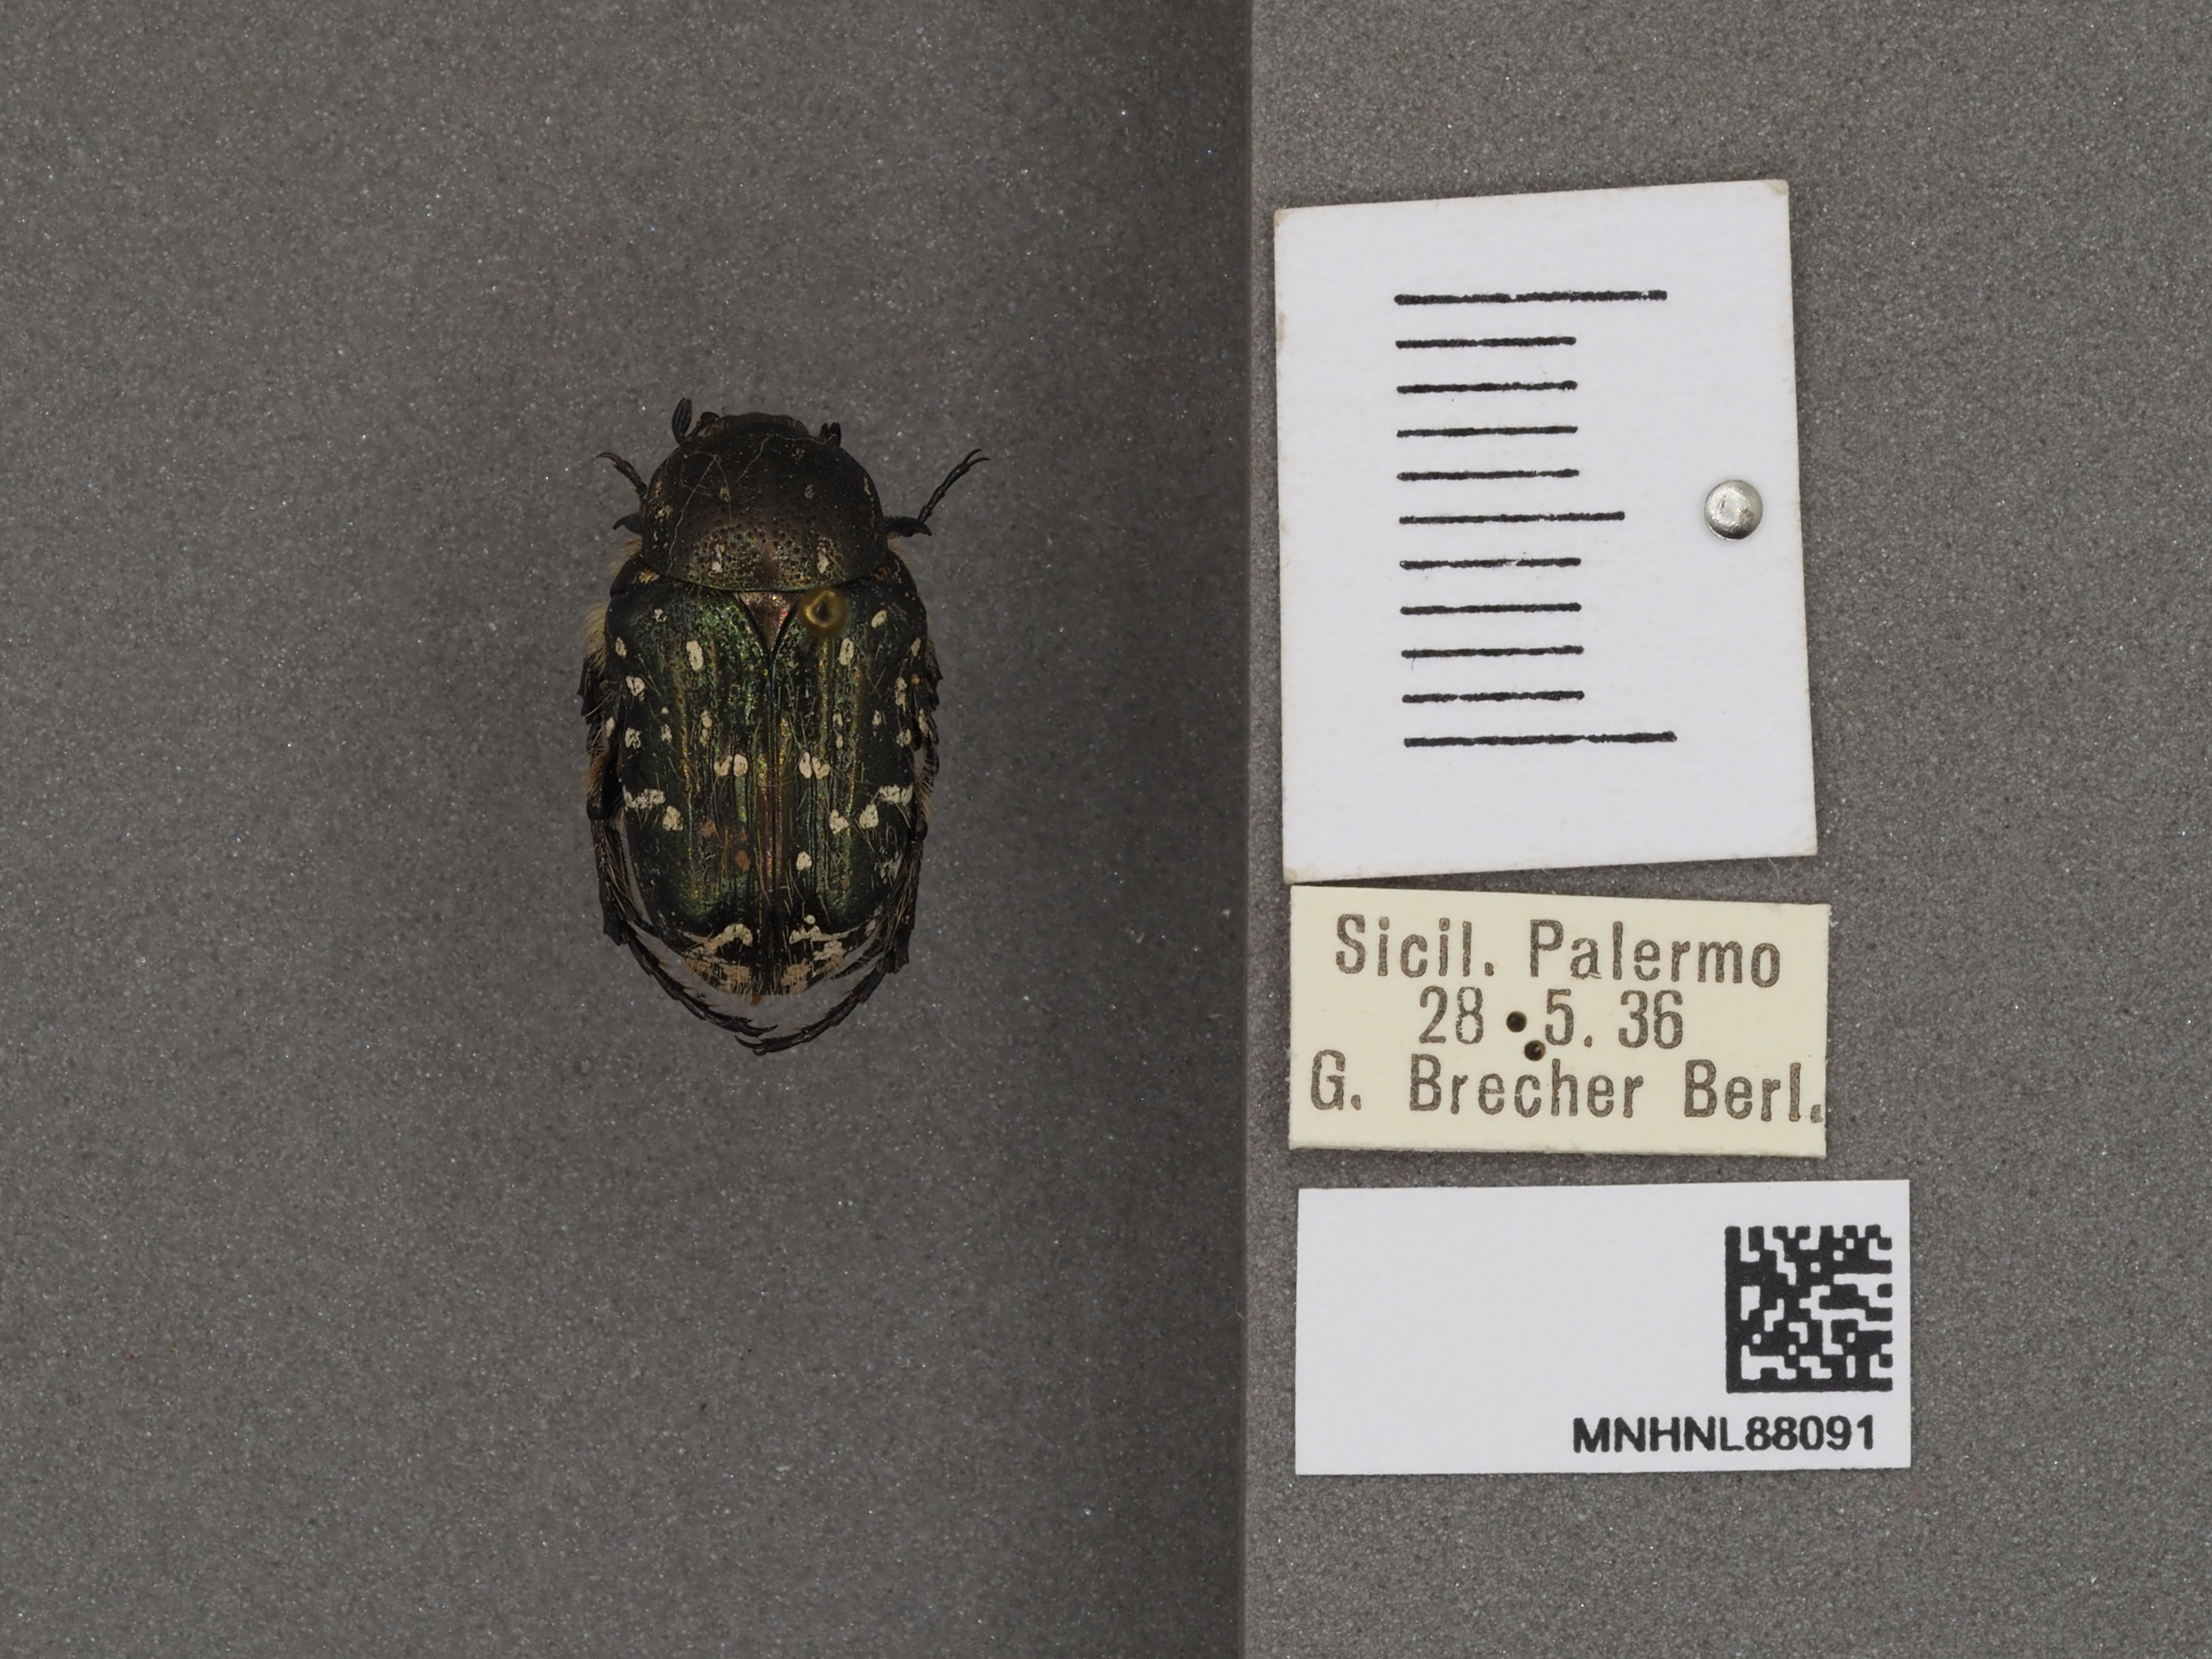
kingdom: Animalia
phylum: Arthropoda
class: Insecta
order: Coleoptera
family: Scarabaeidae
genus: Oxythyrea
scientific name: Oxythyrea funesta
